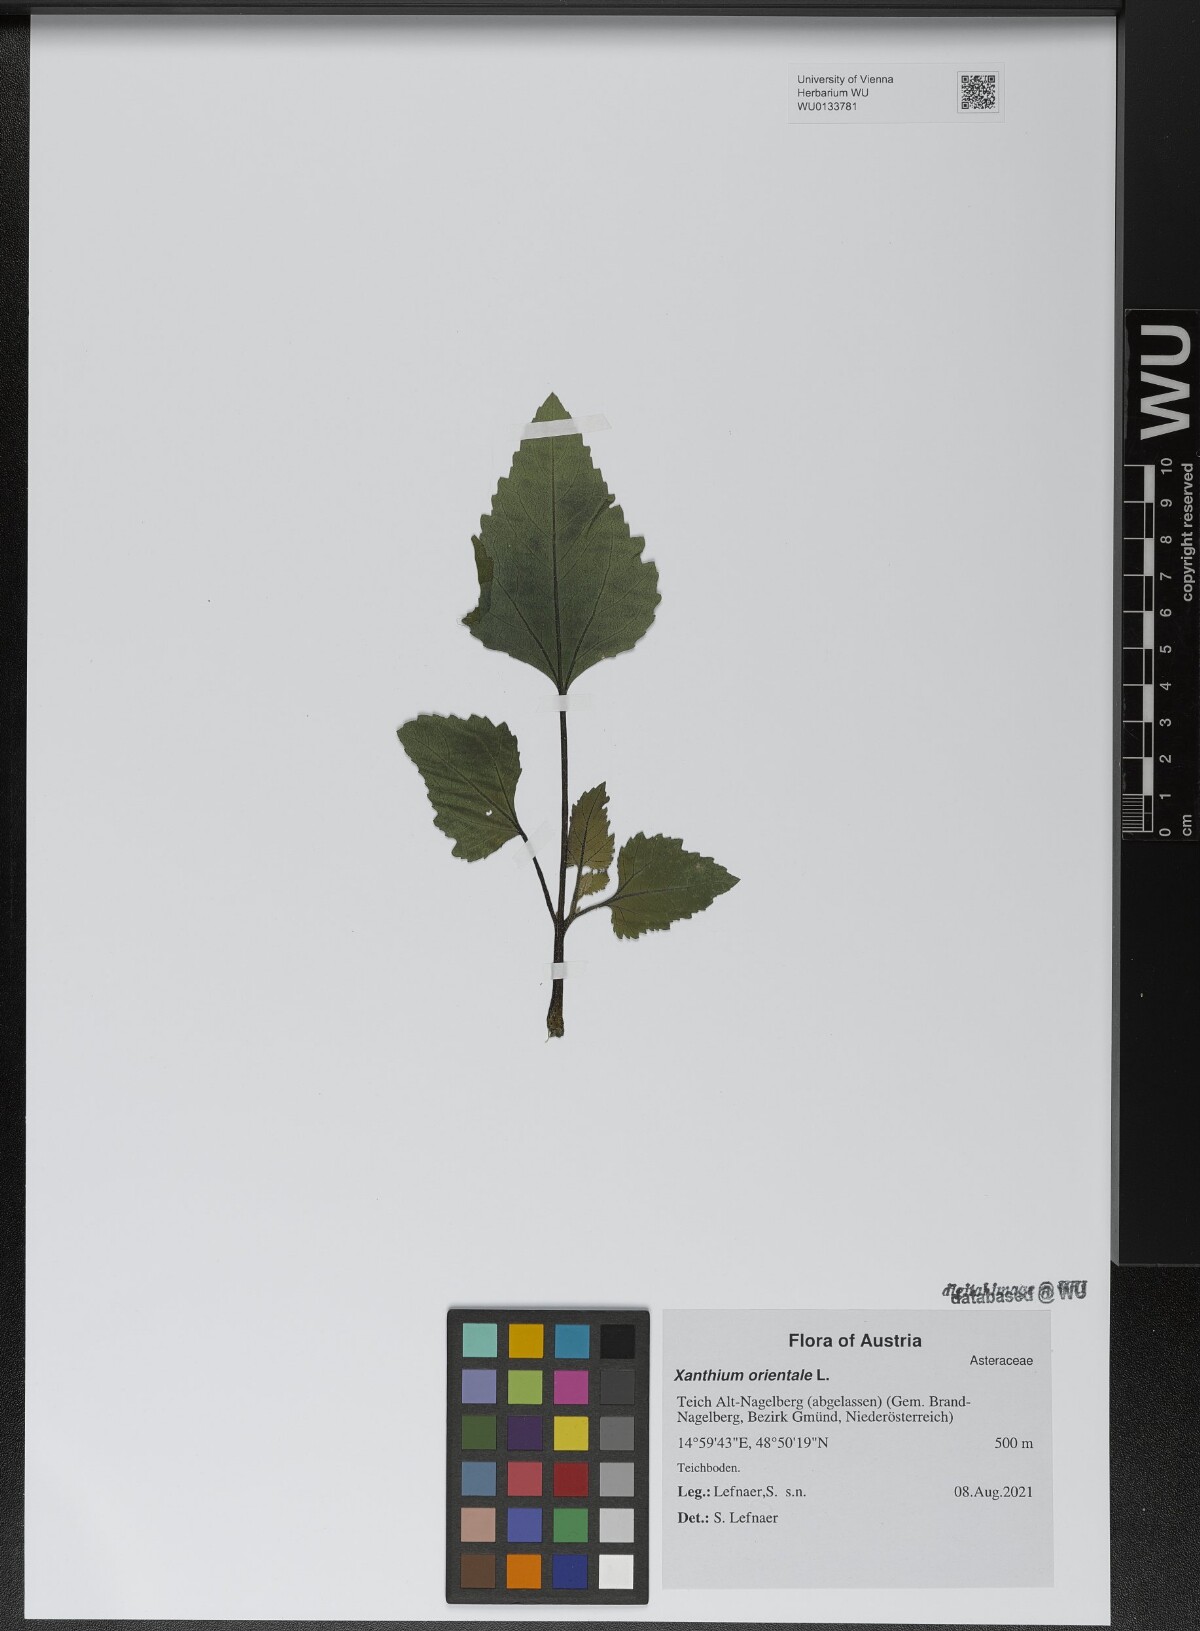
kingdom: Plantae
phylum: Tracheophyta
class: Magnoliopsida
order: Asterales
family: Asteraceae
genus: Xanthium
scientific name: Xanthium orientale
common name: Californian burr
